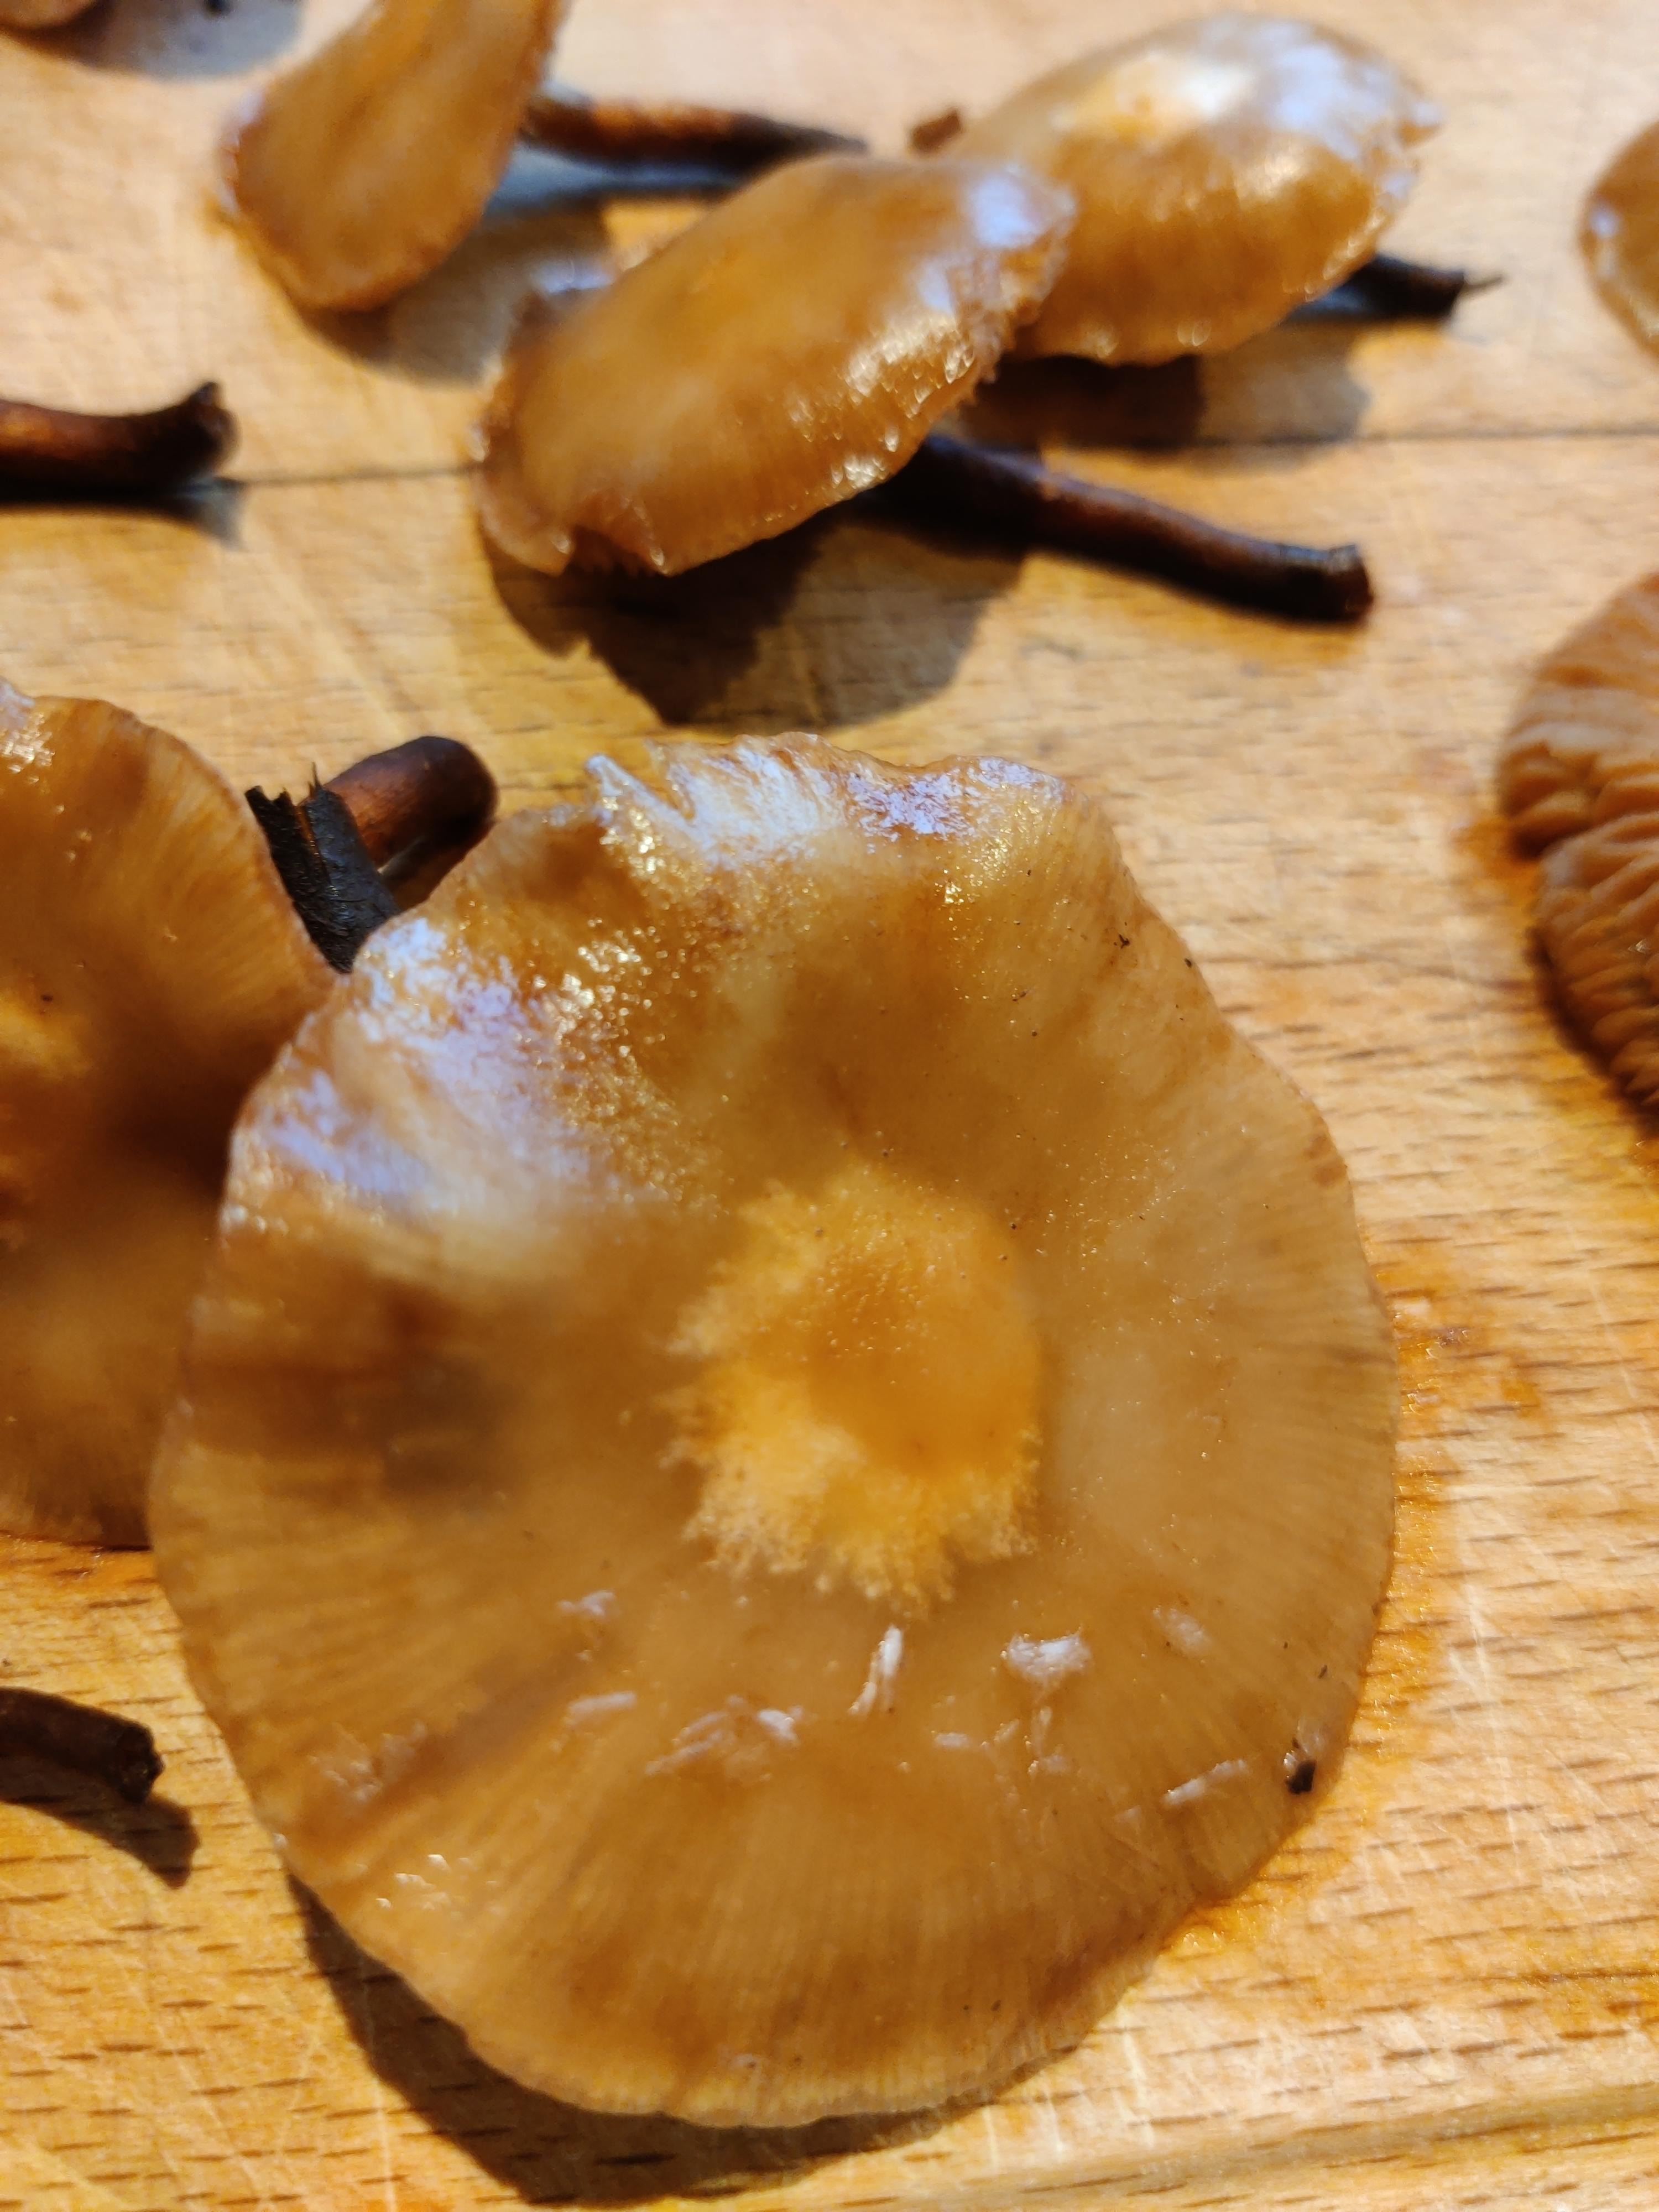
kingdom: Fungi
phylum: Basidiomycota
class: Agaricomycetes
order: Agaricales
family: Strophariaceae
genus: Kuehneromyces
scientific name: Kuehneromyces mutabilis
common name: foranderlig skælhat
